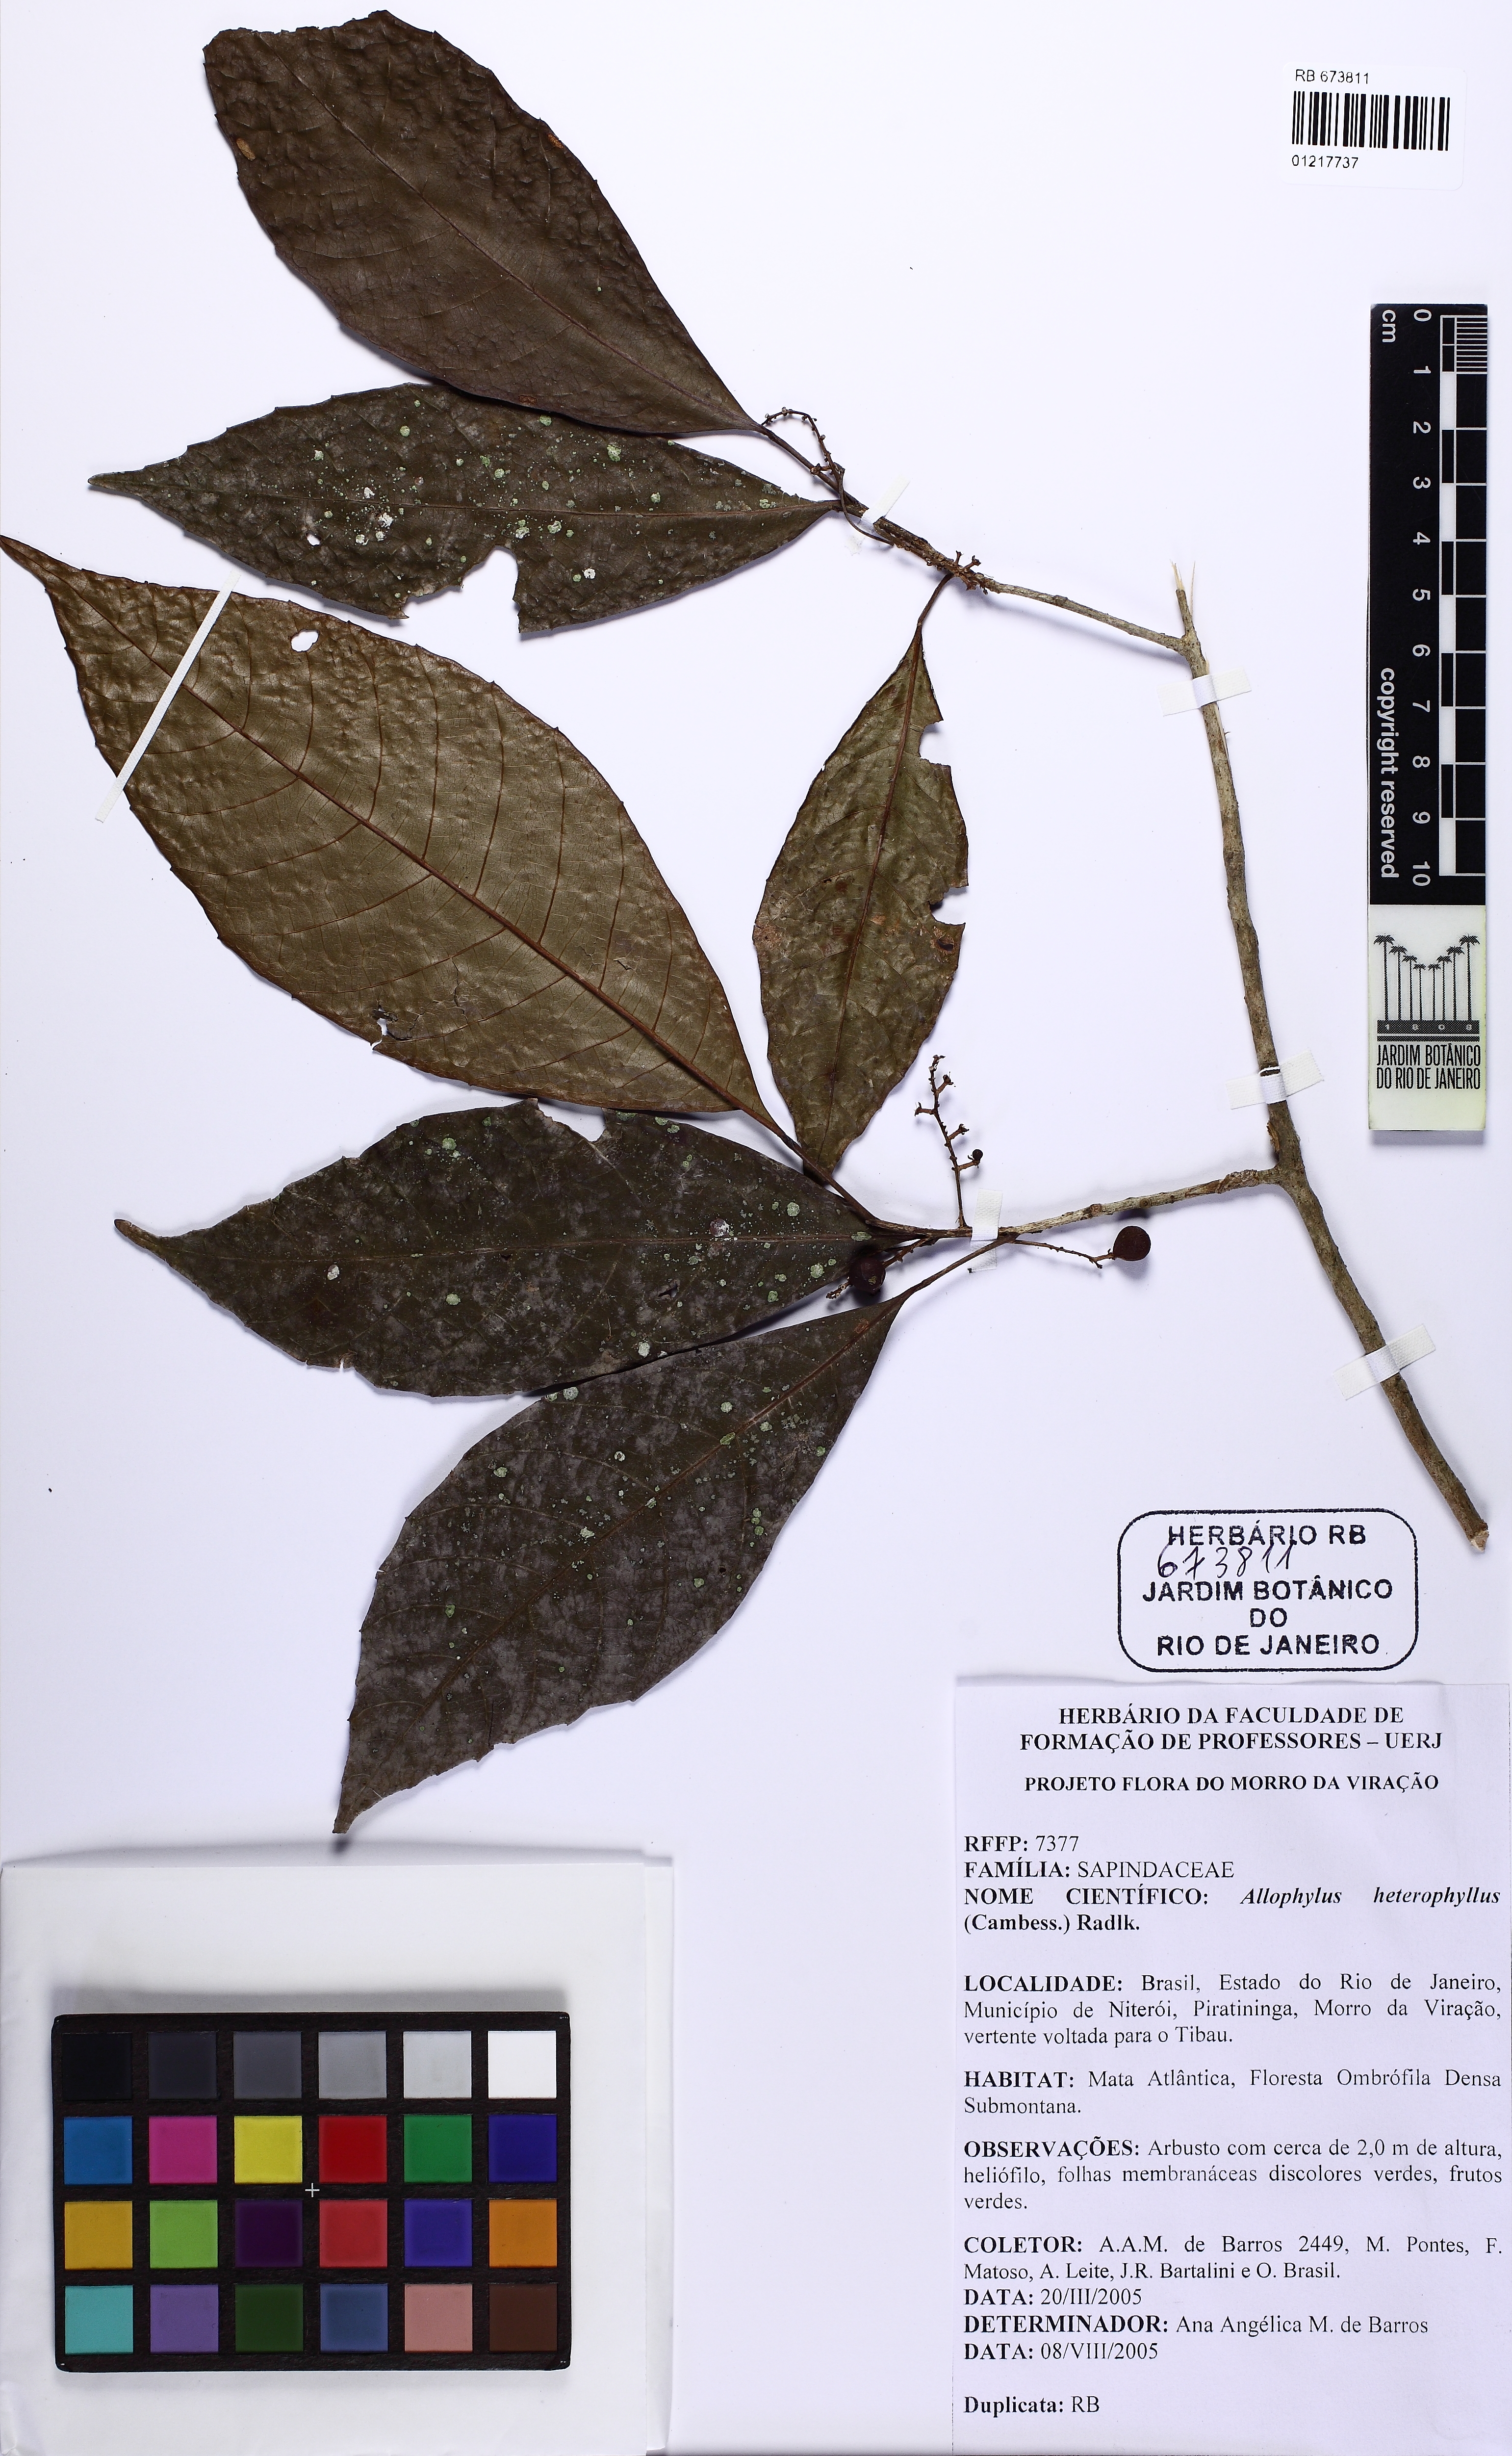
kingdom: Plantae
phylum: Tracheophyta
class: Magnoliopsida
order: Sapindales
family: Sapindaceae
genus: Allophylus
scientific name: Allophylus heterophyllus
